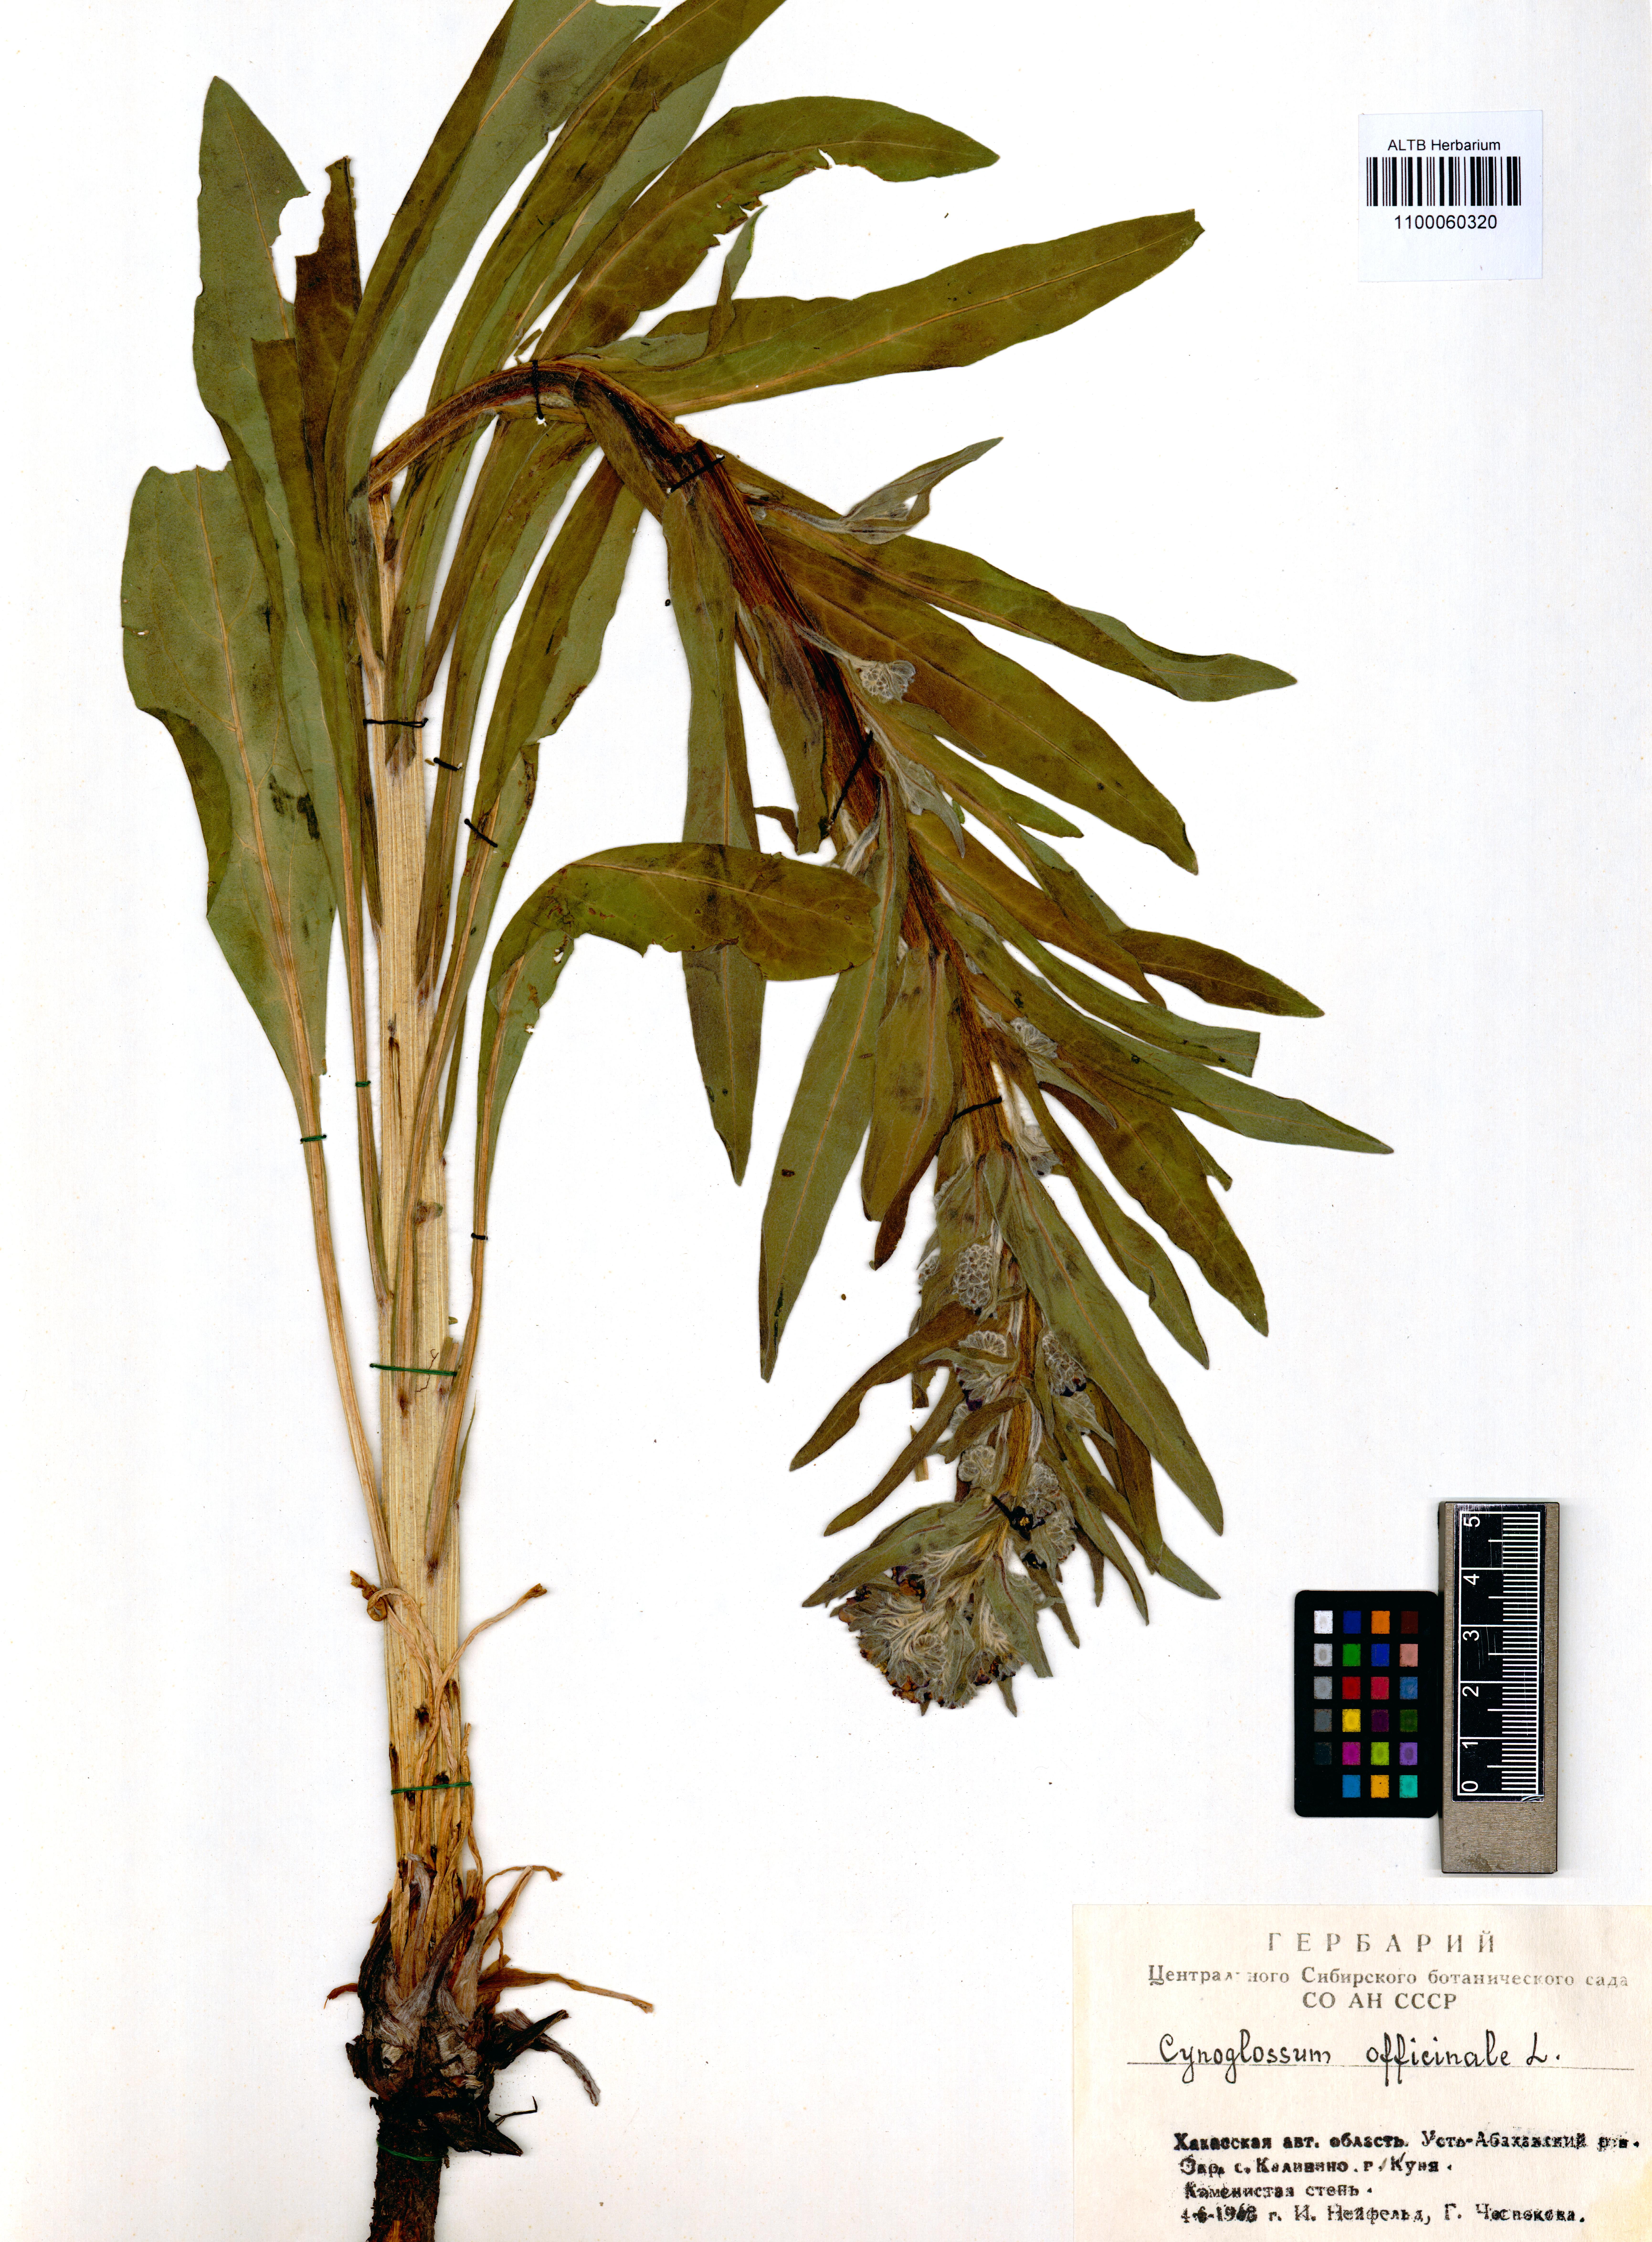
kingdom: Plantae
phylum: Tracheophyta
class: Magnoliopsida
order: Boraginales
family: Boraginaceae
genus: Cynoglossum
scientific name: Cynoglossum officinale
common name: Hound's-tongue
